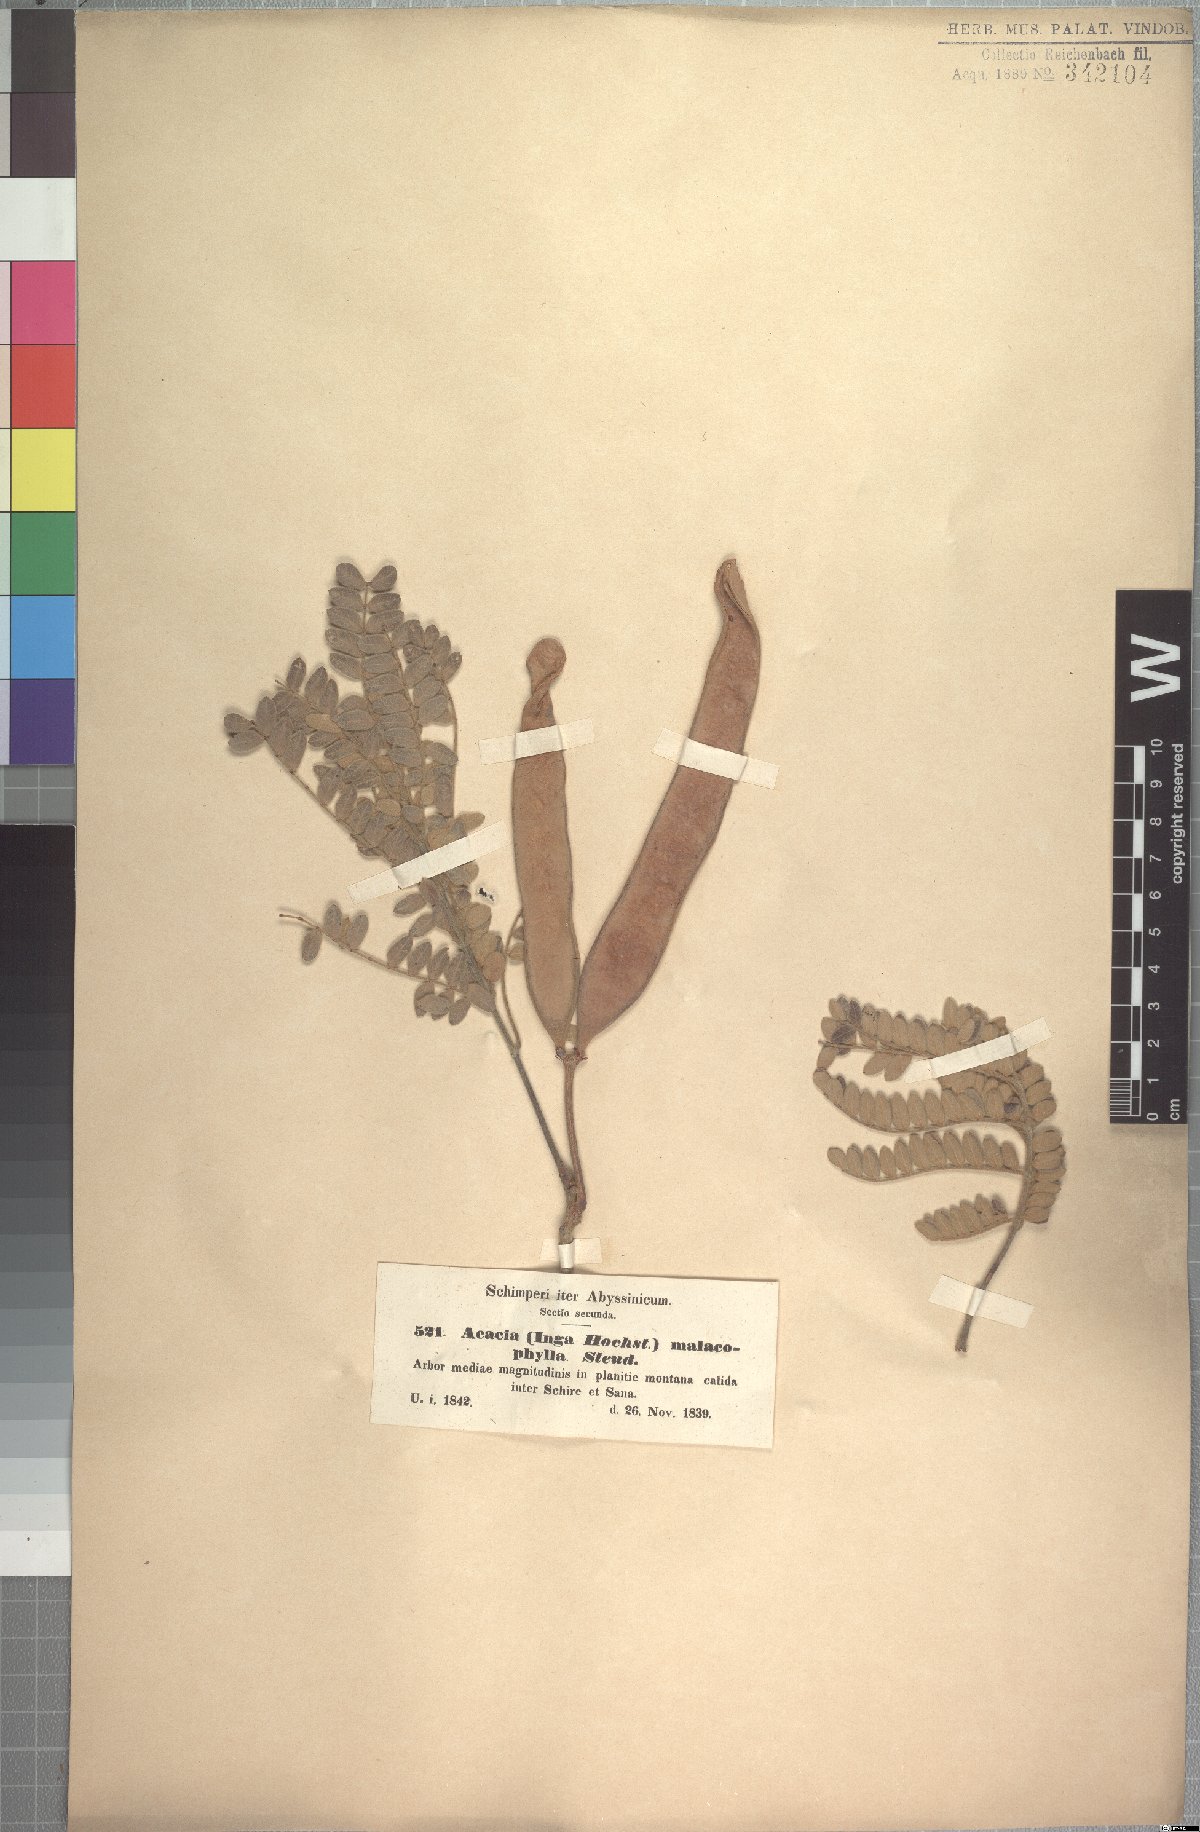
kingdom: Plantae
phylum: Tracheophyta
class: Magnoliopsida
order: Fabales
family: Fabaceae
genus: Albizia
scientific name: Albizia malacophylla
